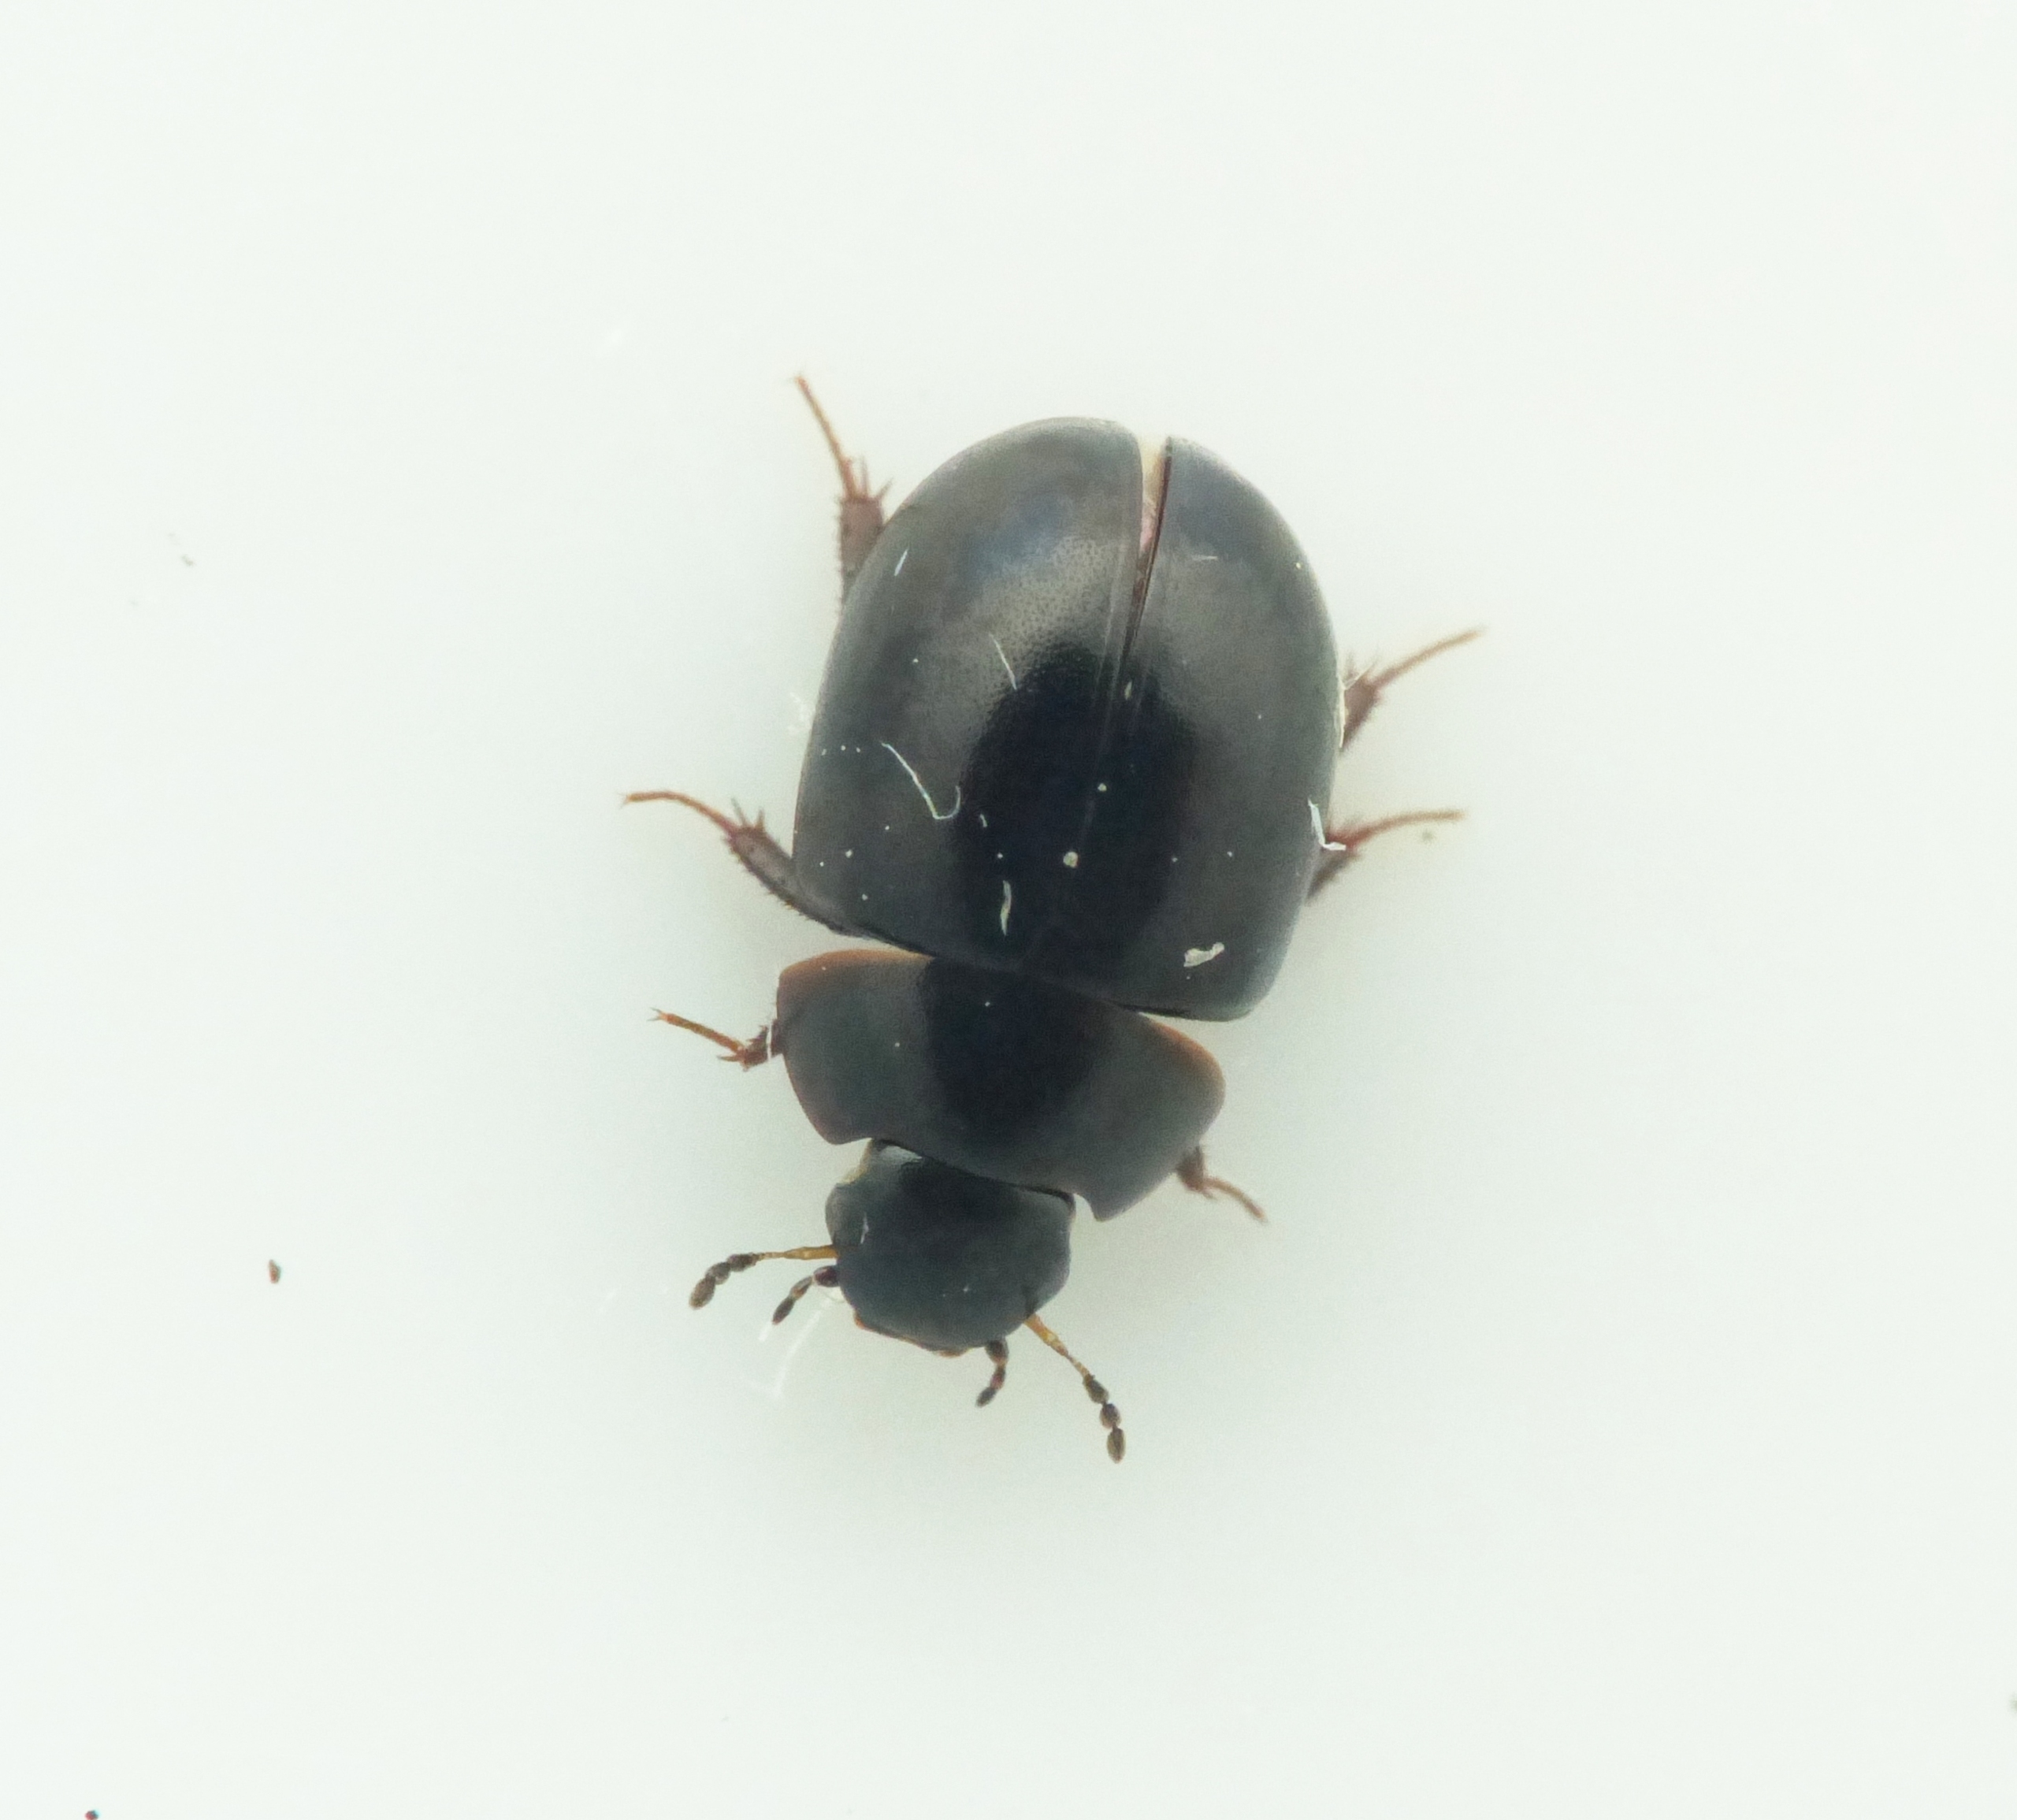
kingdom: Animalia
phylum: Arthropoda
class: Insecta
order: Coleoptera
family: Hydrophilidae
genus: Coelostoma
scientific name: Coelostoma orbiculare
